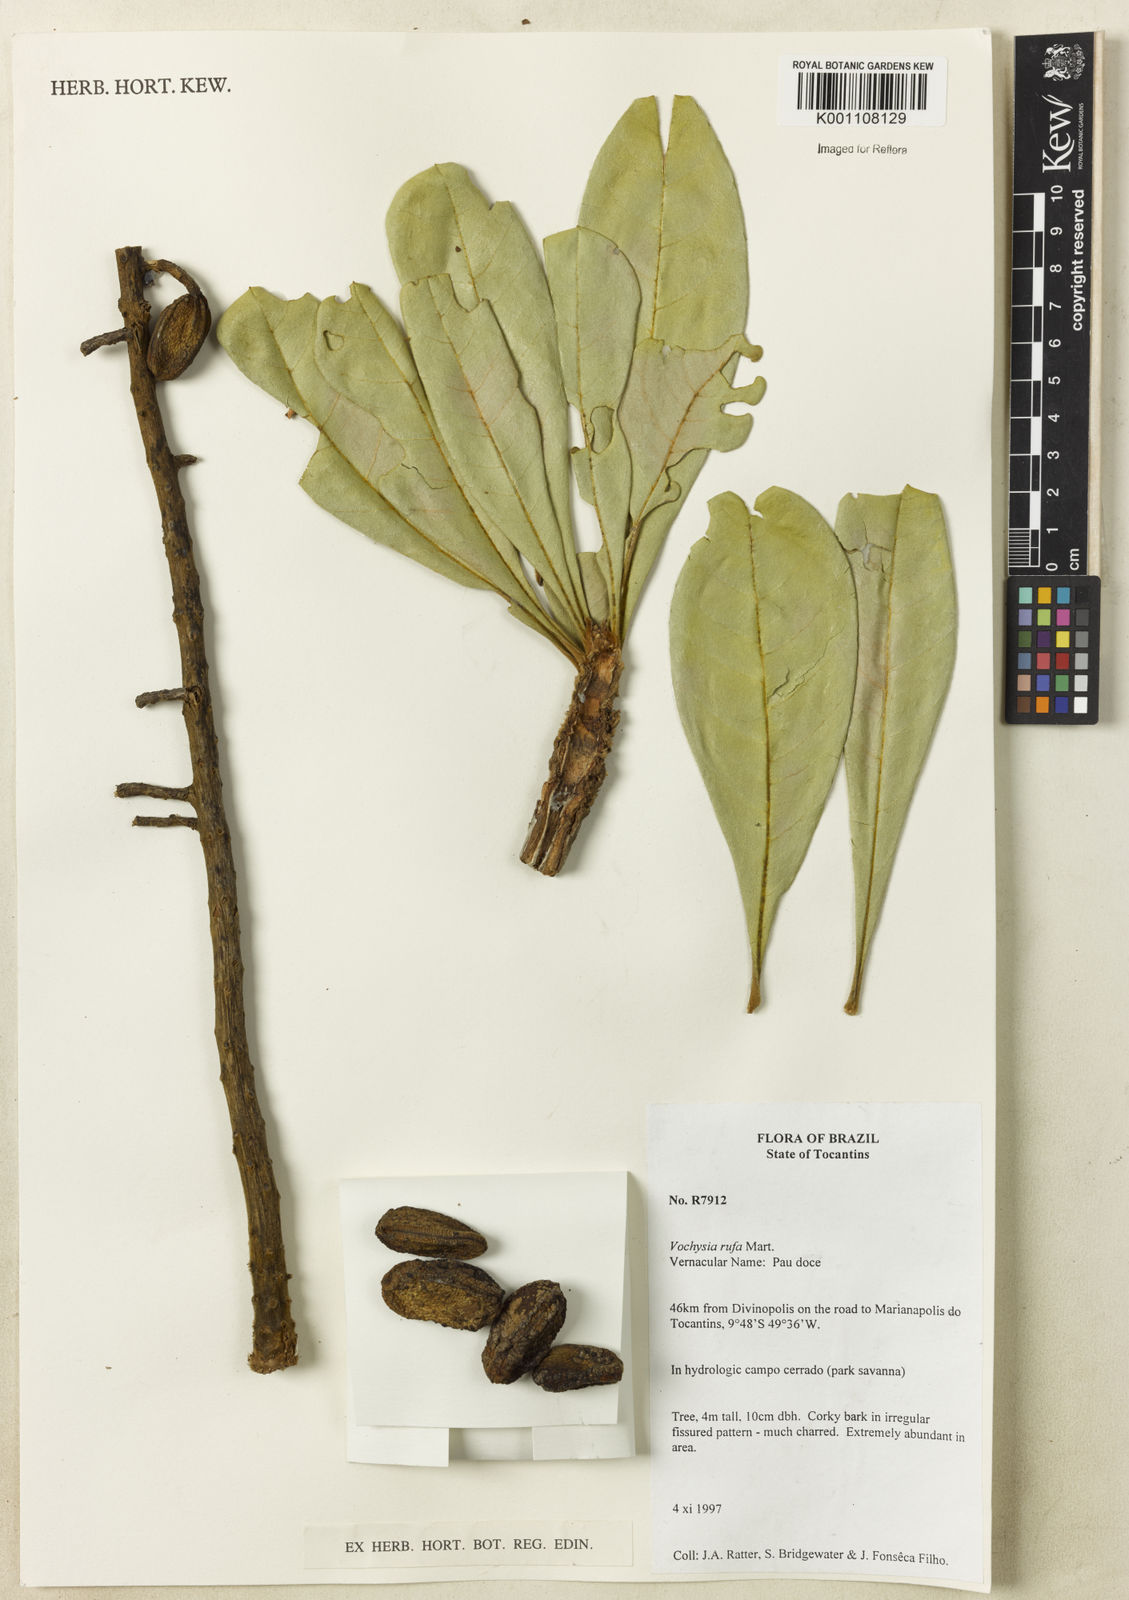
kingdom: Plantae
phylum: Tracheophyta
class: Magnoliopsida
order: Myrtales
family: Vochysiaceae
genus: Vochysia
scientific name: Vochysia rufa
